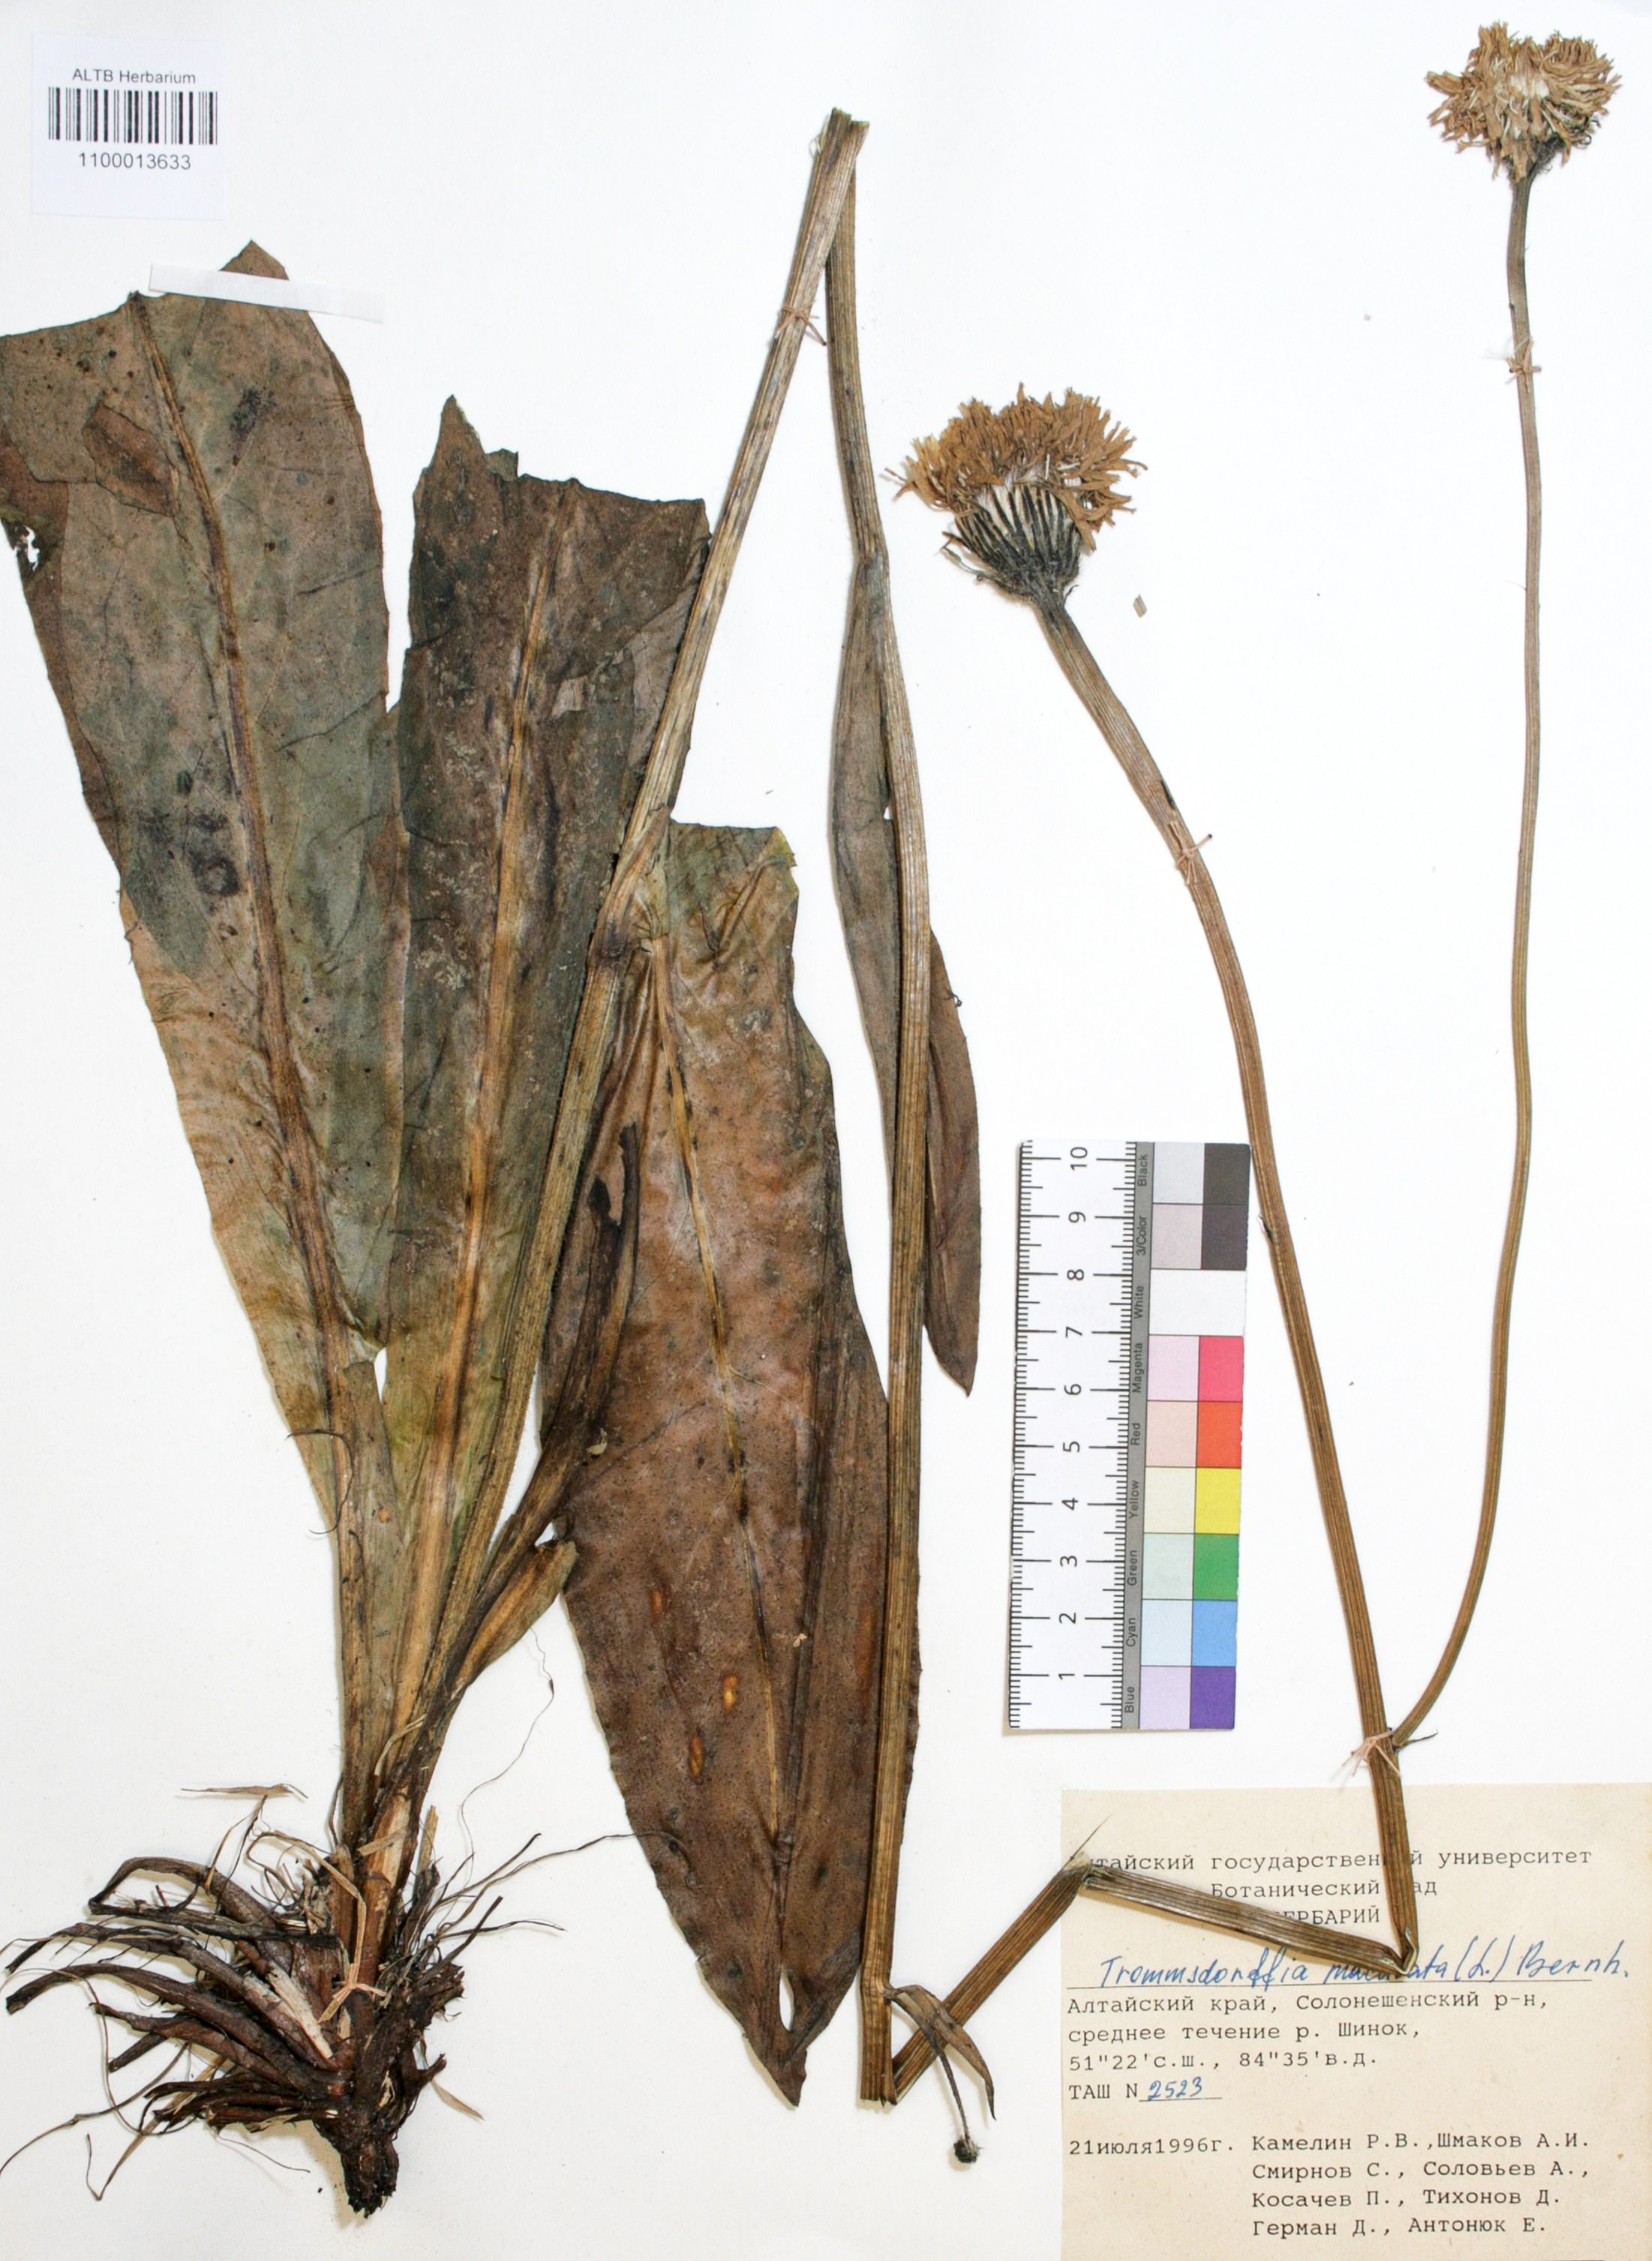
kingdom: Plantae
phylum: Tracheophyta
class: Magnoliopsida
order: Asterales
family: Asteraceae
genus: Trommsdorffia
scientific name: Trommsdorffia maculata
